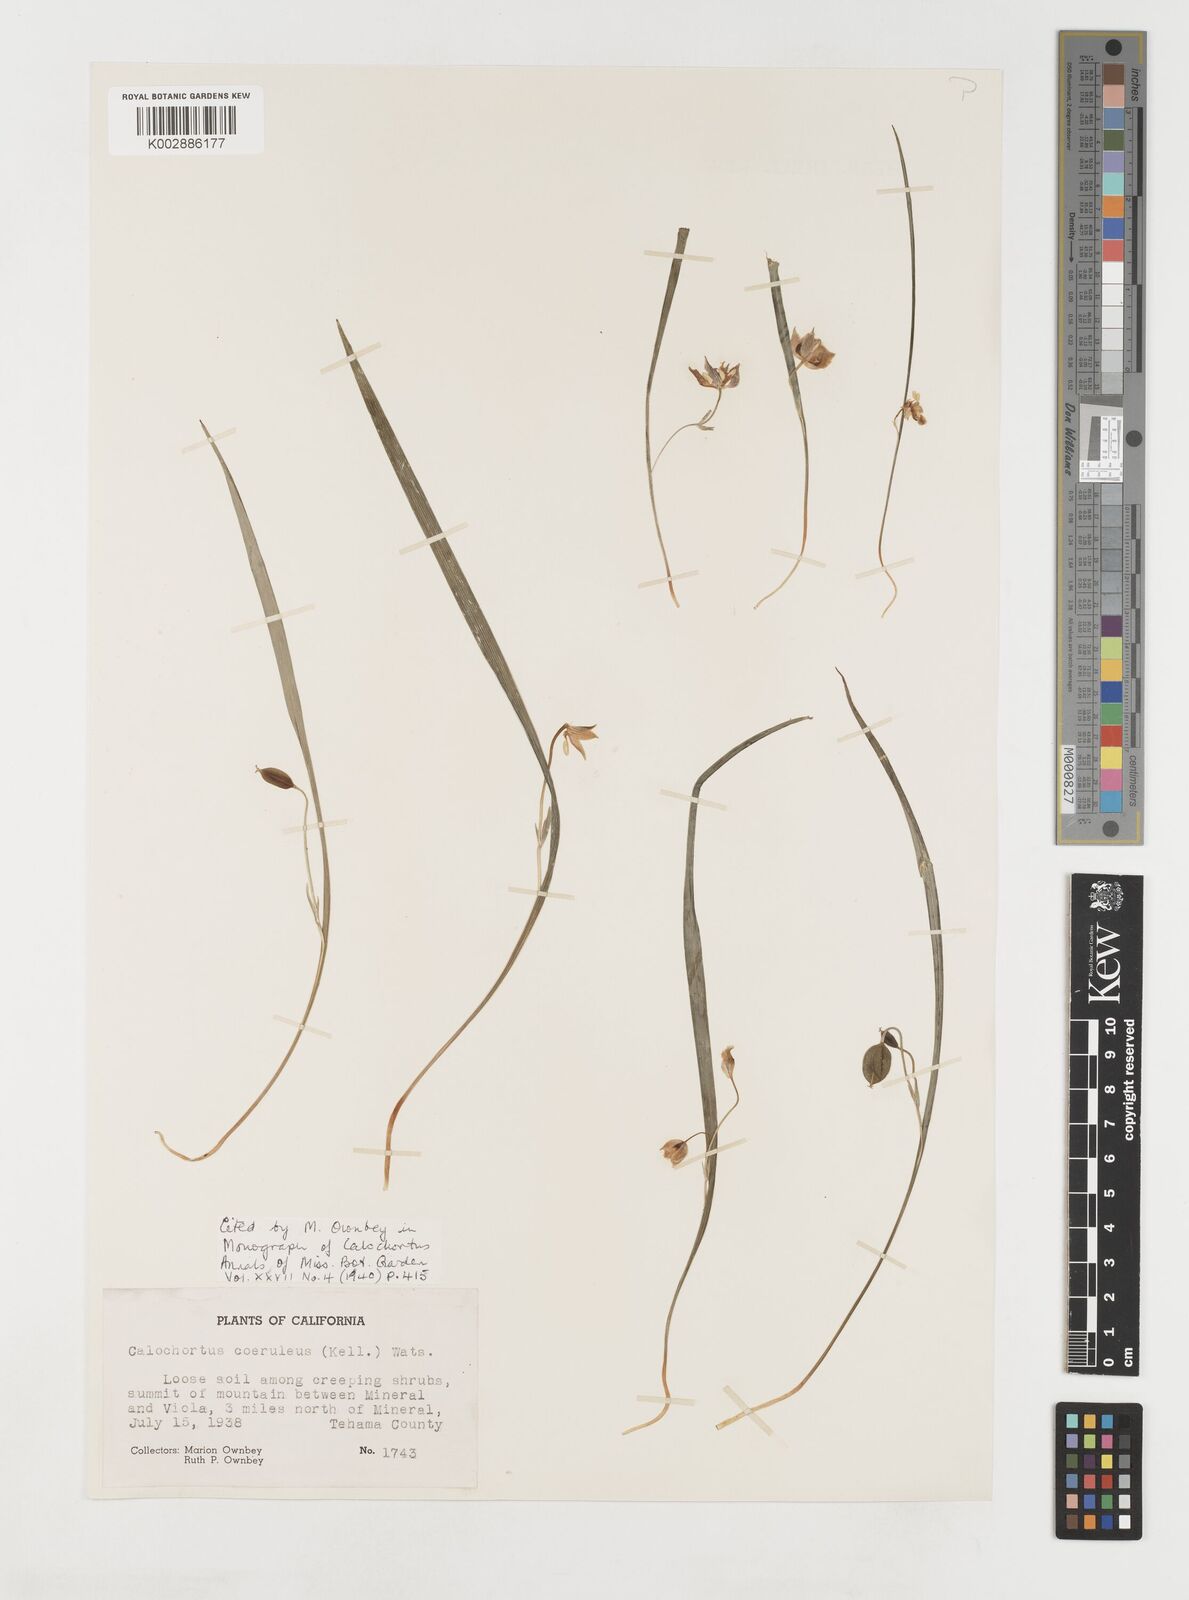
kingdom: Plantae
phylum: Tracheophyta
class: Liliopsida
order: Liliales
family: Liliaceae
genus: Calochortus
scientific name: Calochortus coeruleus
